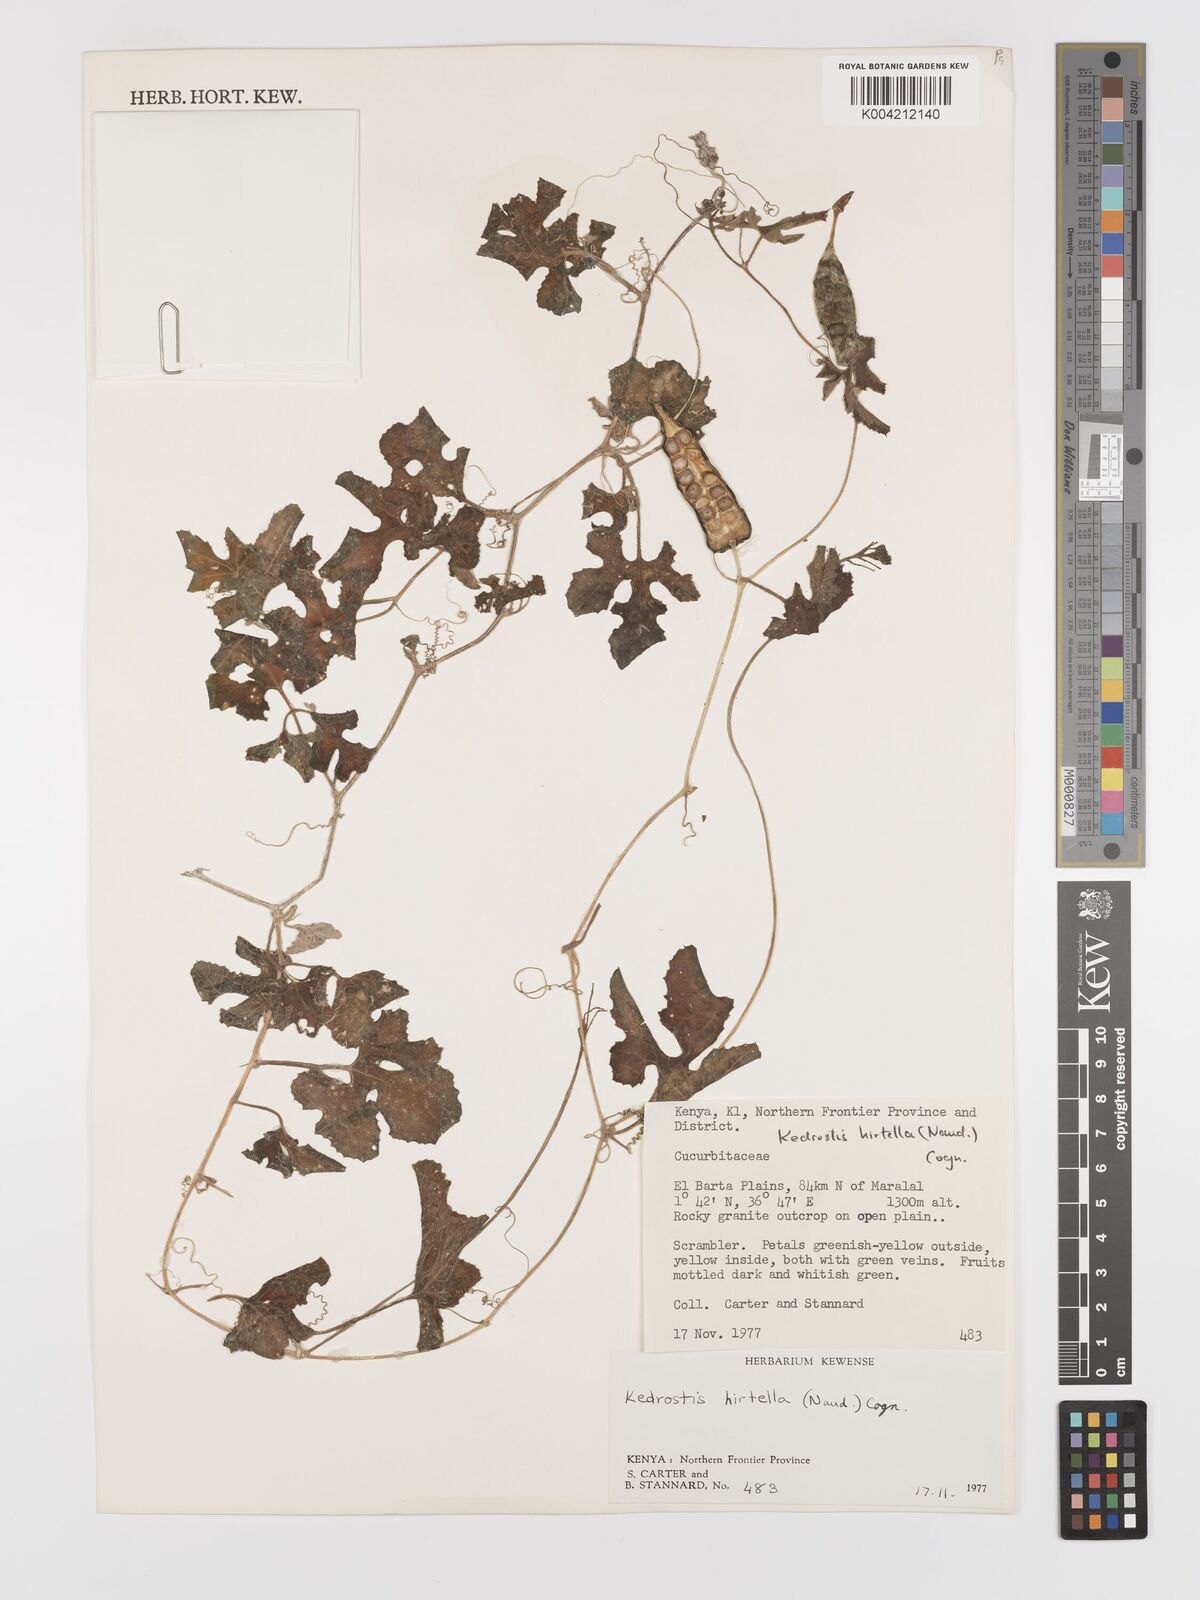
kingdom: Plantae
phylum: Tracheophyta
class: Magnoliopsida
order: Cucurbitales
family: Cucurbitaceae
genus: Kedrostis
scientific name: Kedrostis leloja
